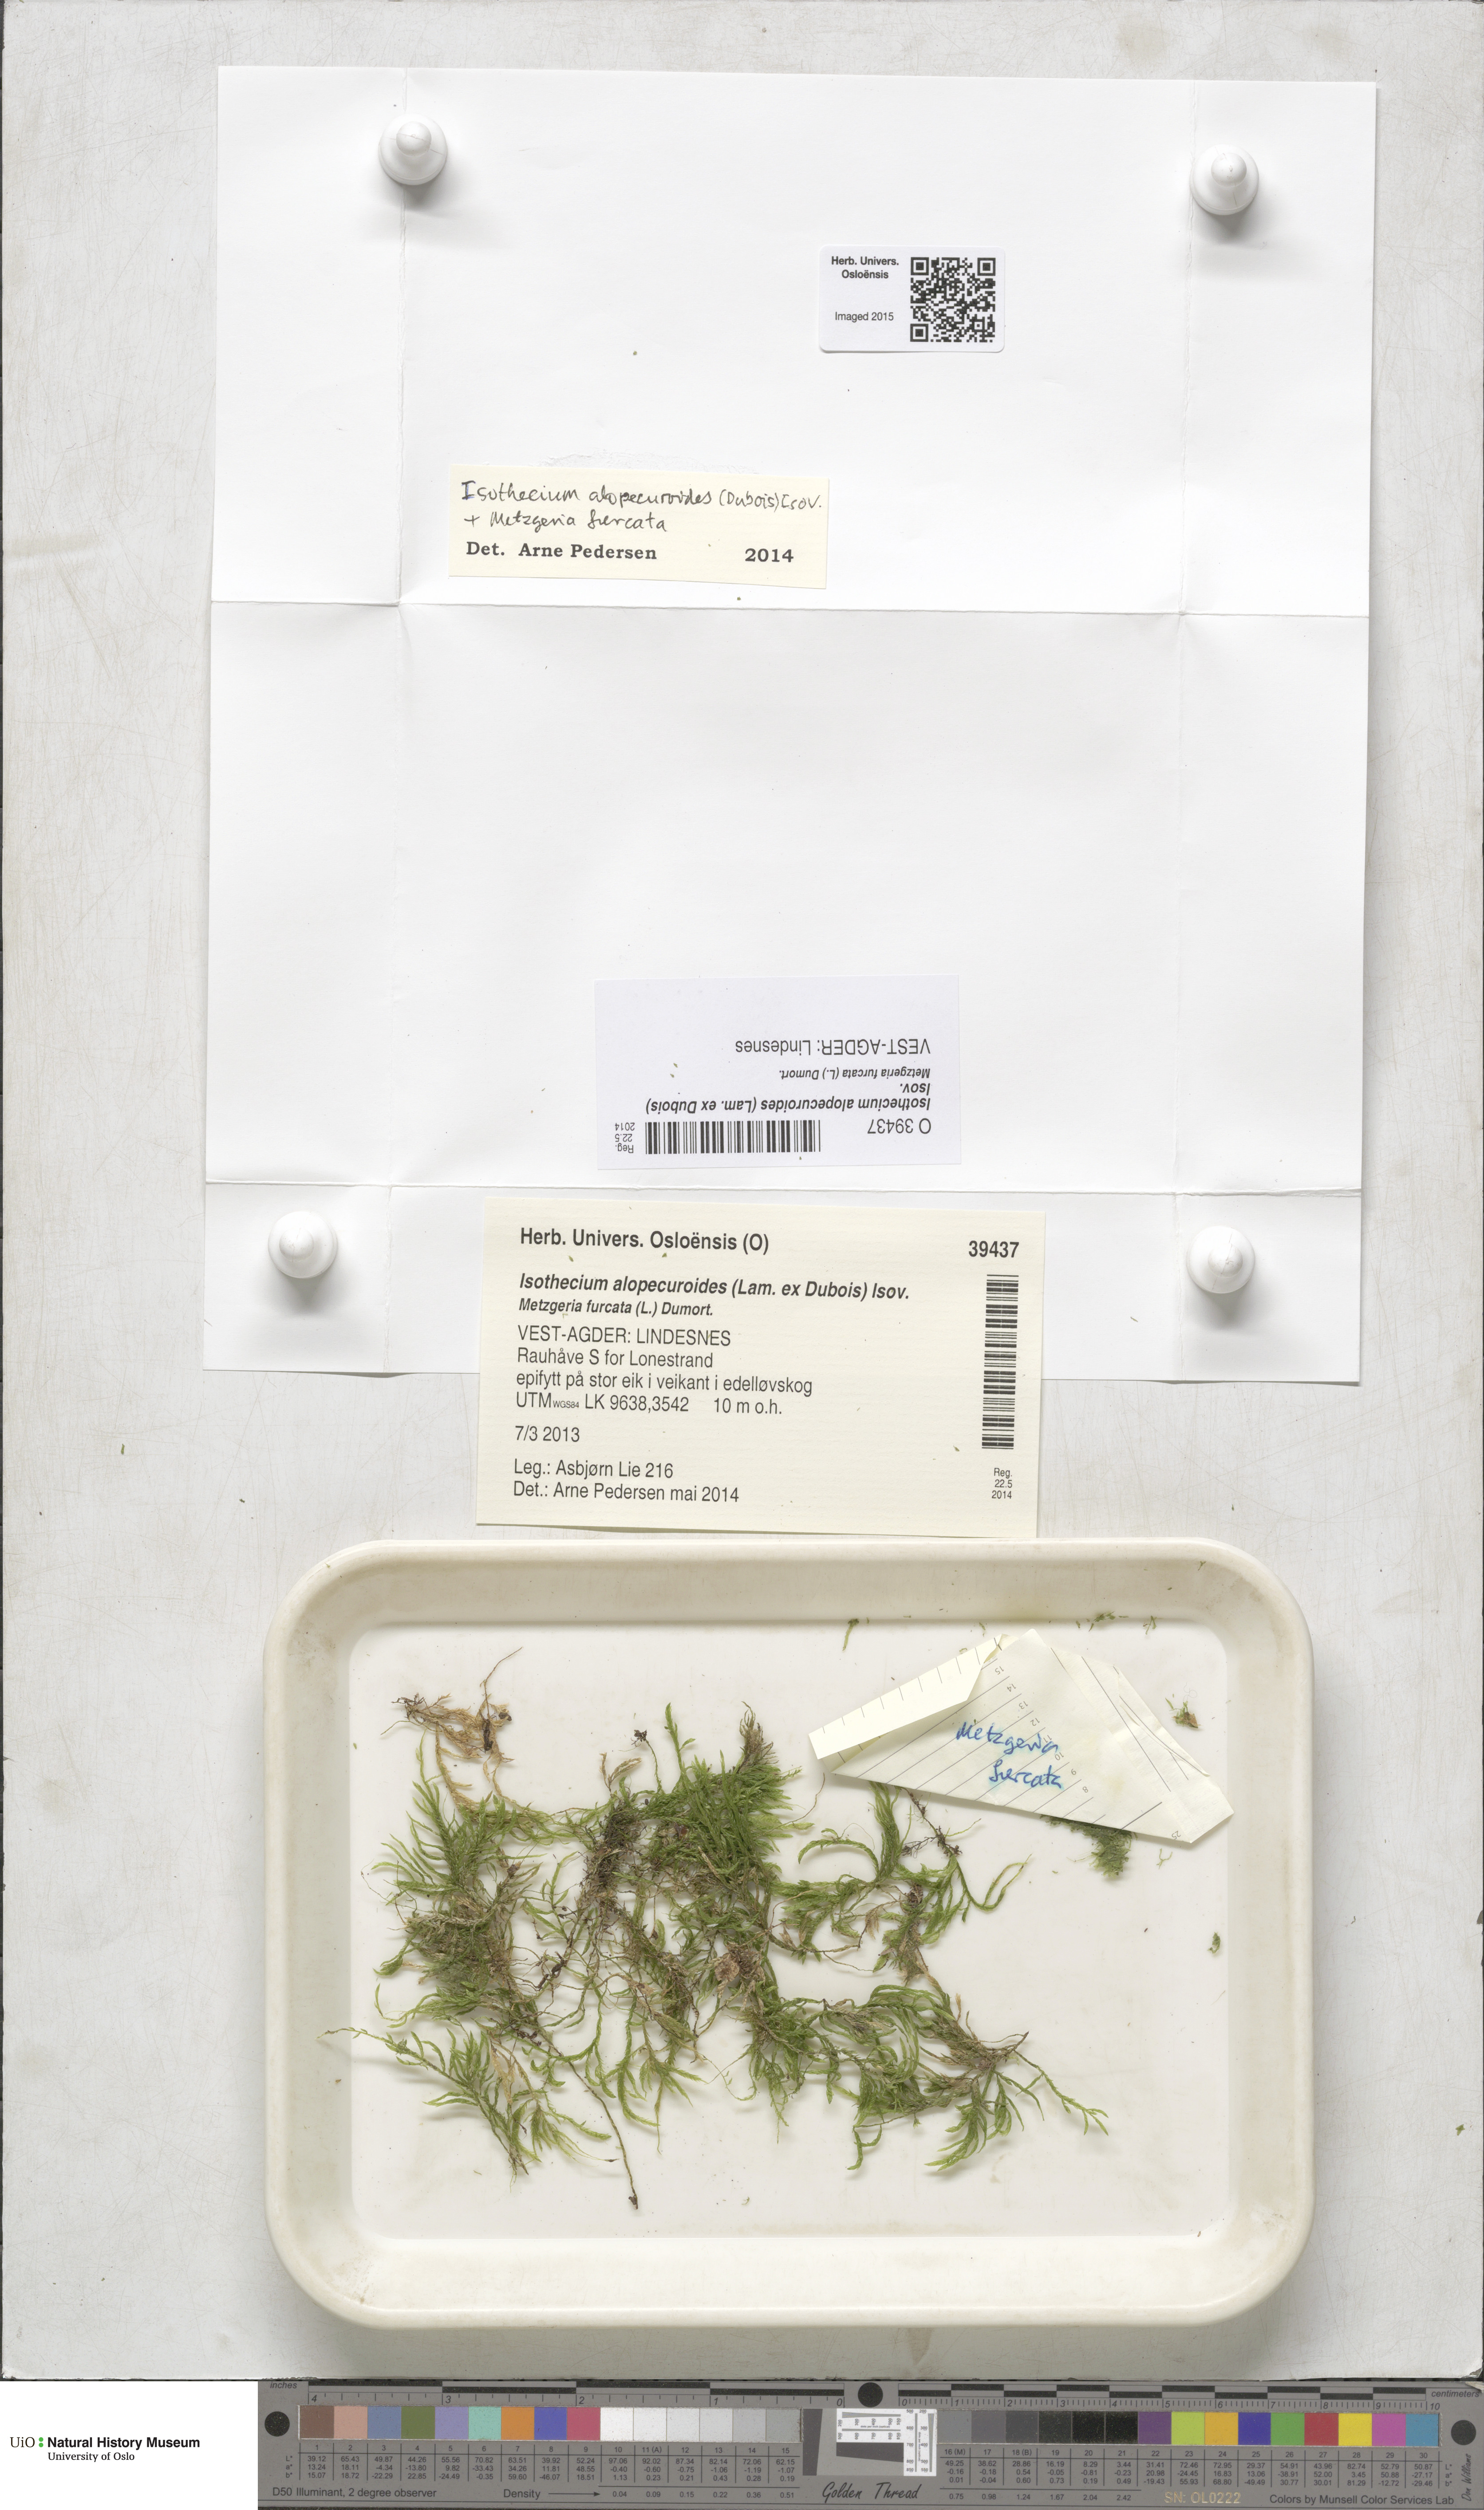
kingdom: Plantae
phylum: Bryophyta
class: Bryopsida
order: Hypnales
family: Lembophyllaceae
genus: Isothecium
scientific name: Isothecium alopecuroides
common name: Larger mouse-tail moss
